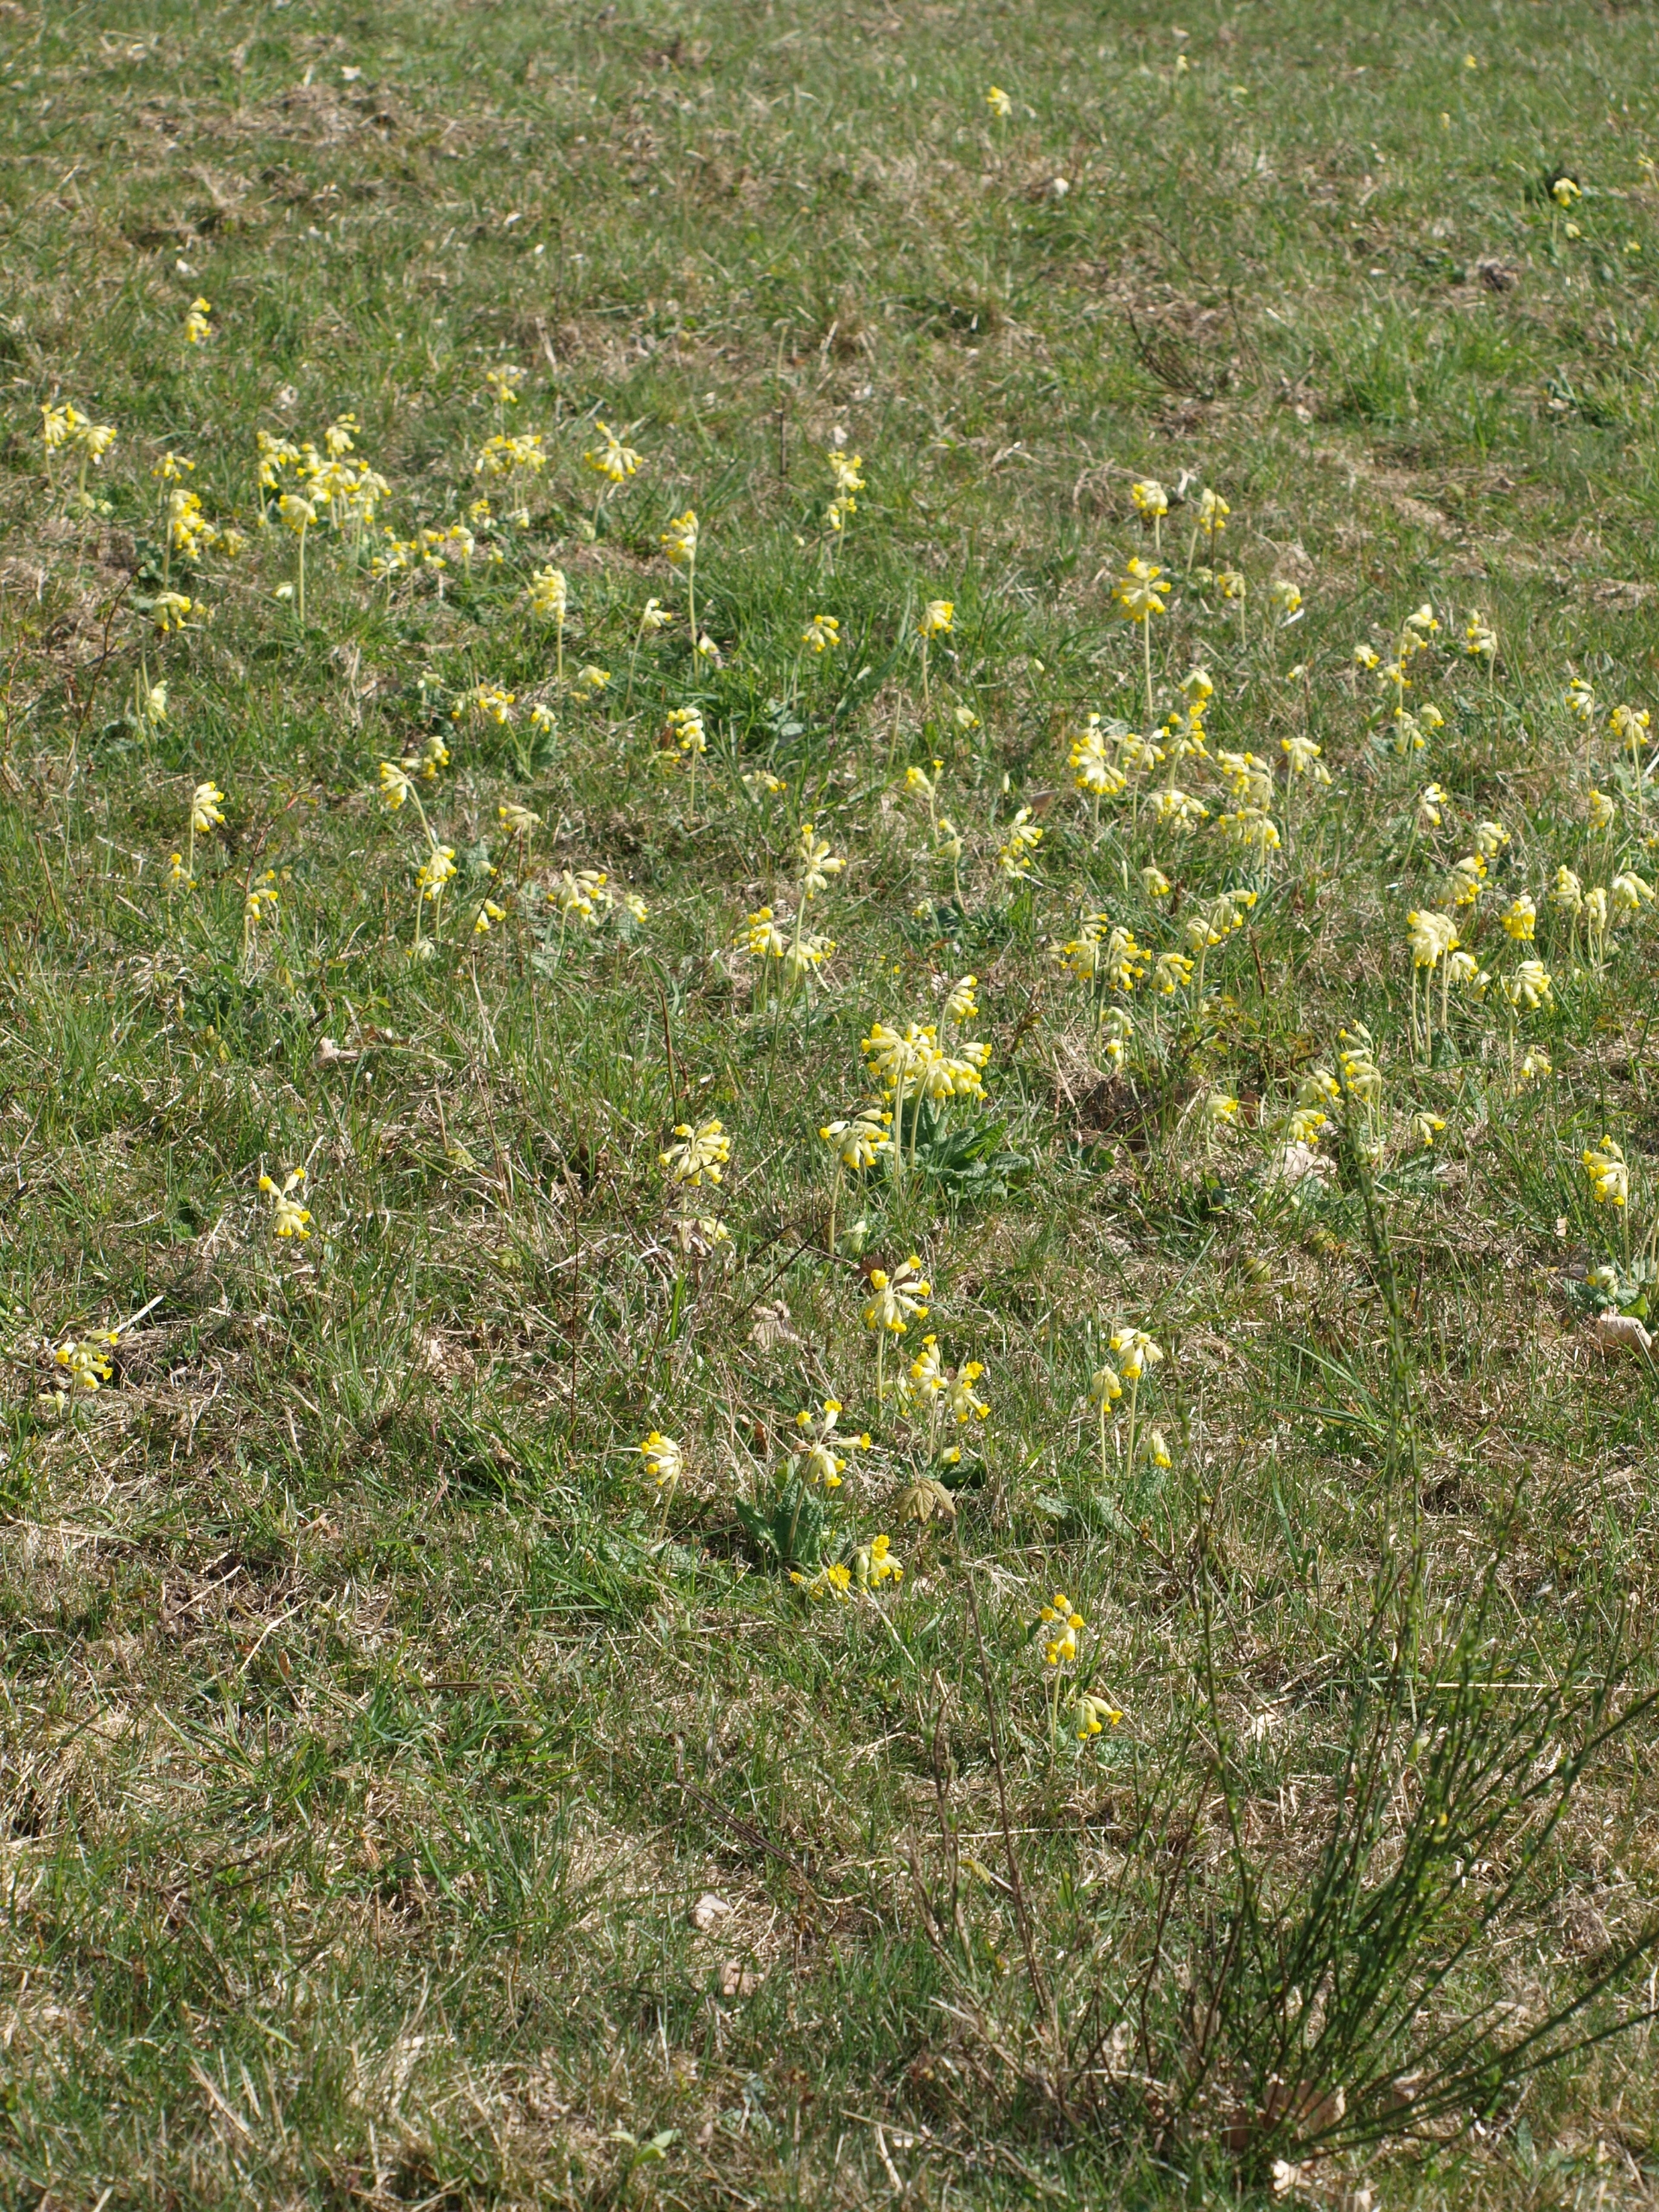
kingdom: Plantae
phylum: Tracheophyta
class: Magnoliopsida
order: Ericales
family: Primulaceae
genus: Primula
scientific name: Primula veris
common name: Hulkravet kodriver
